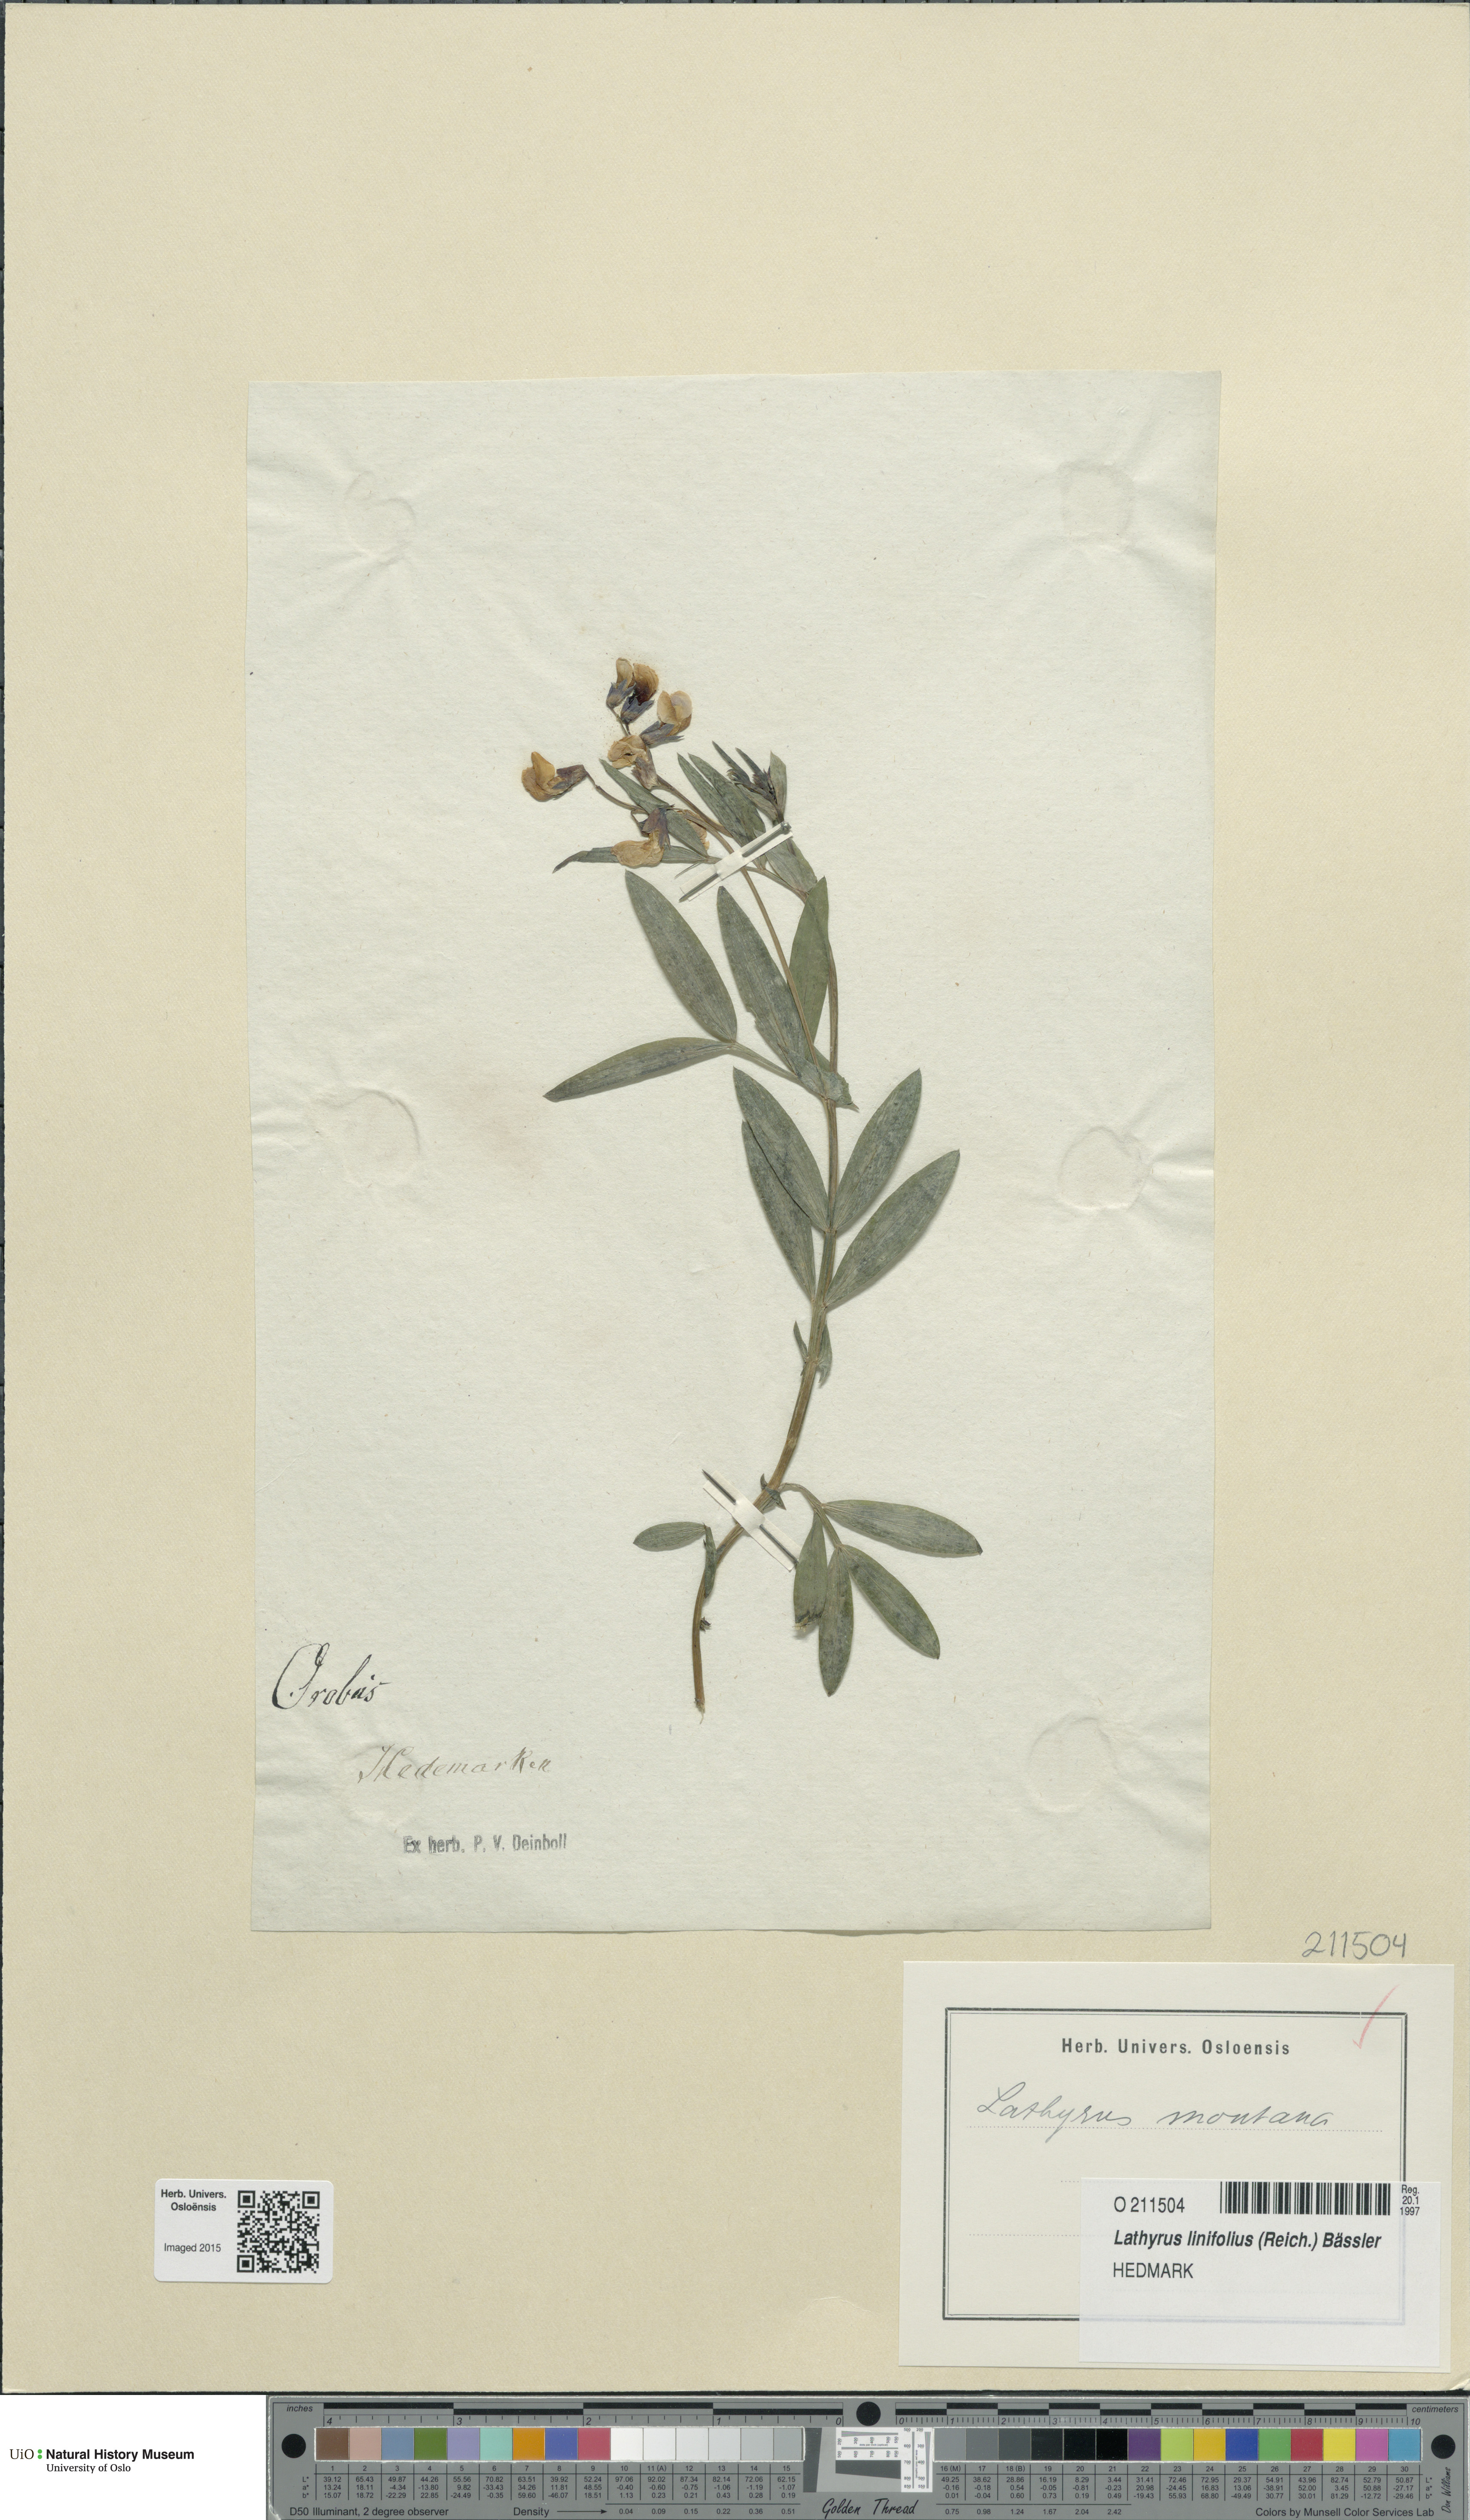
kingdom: Plantae
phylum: Tracheophyta
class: Magnoliopsida
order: Fabales
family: Fabaceae
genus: Lathyrus
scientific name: Lathyrus linifolius
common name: Bitter-vetch
